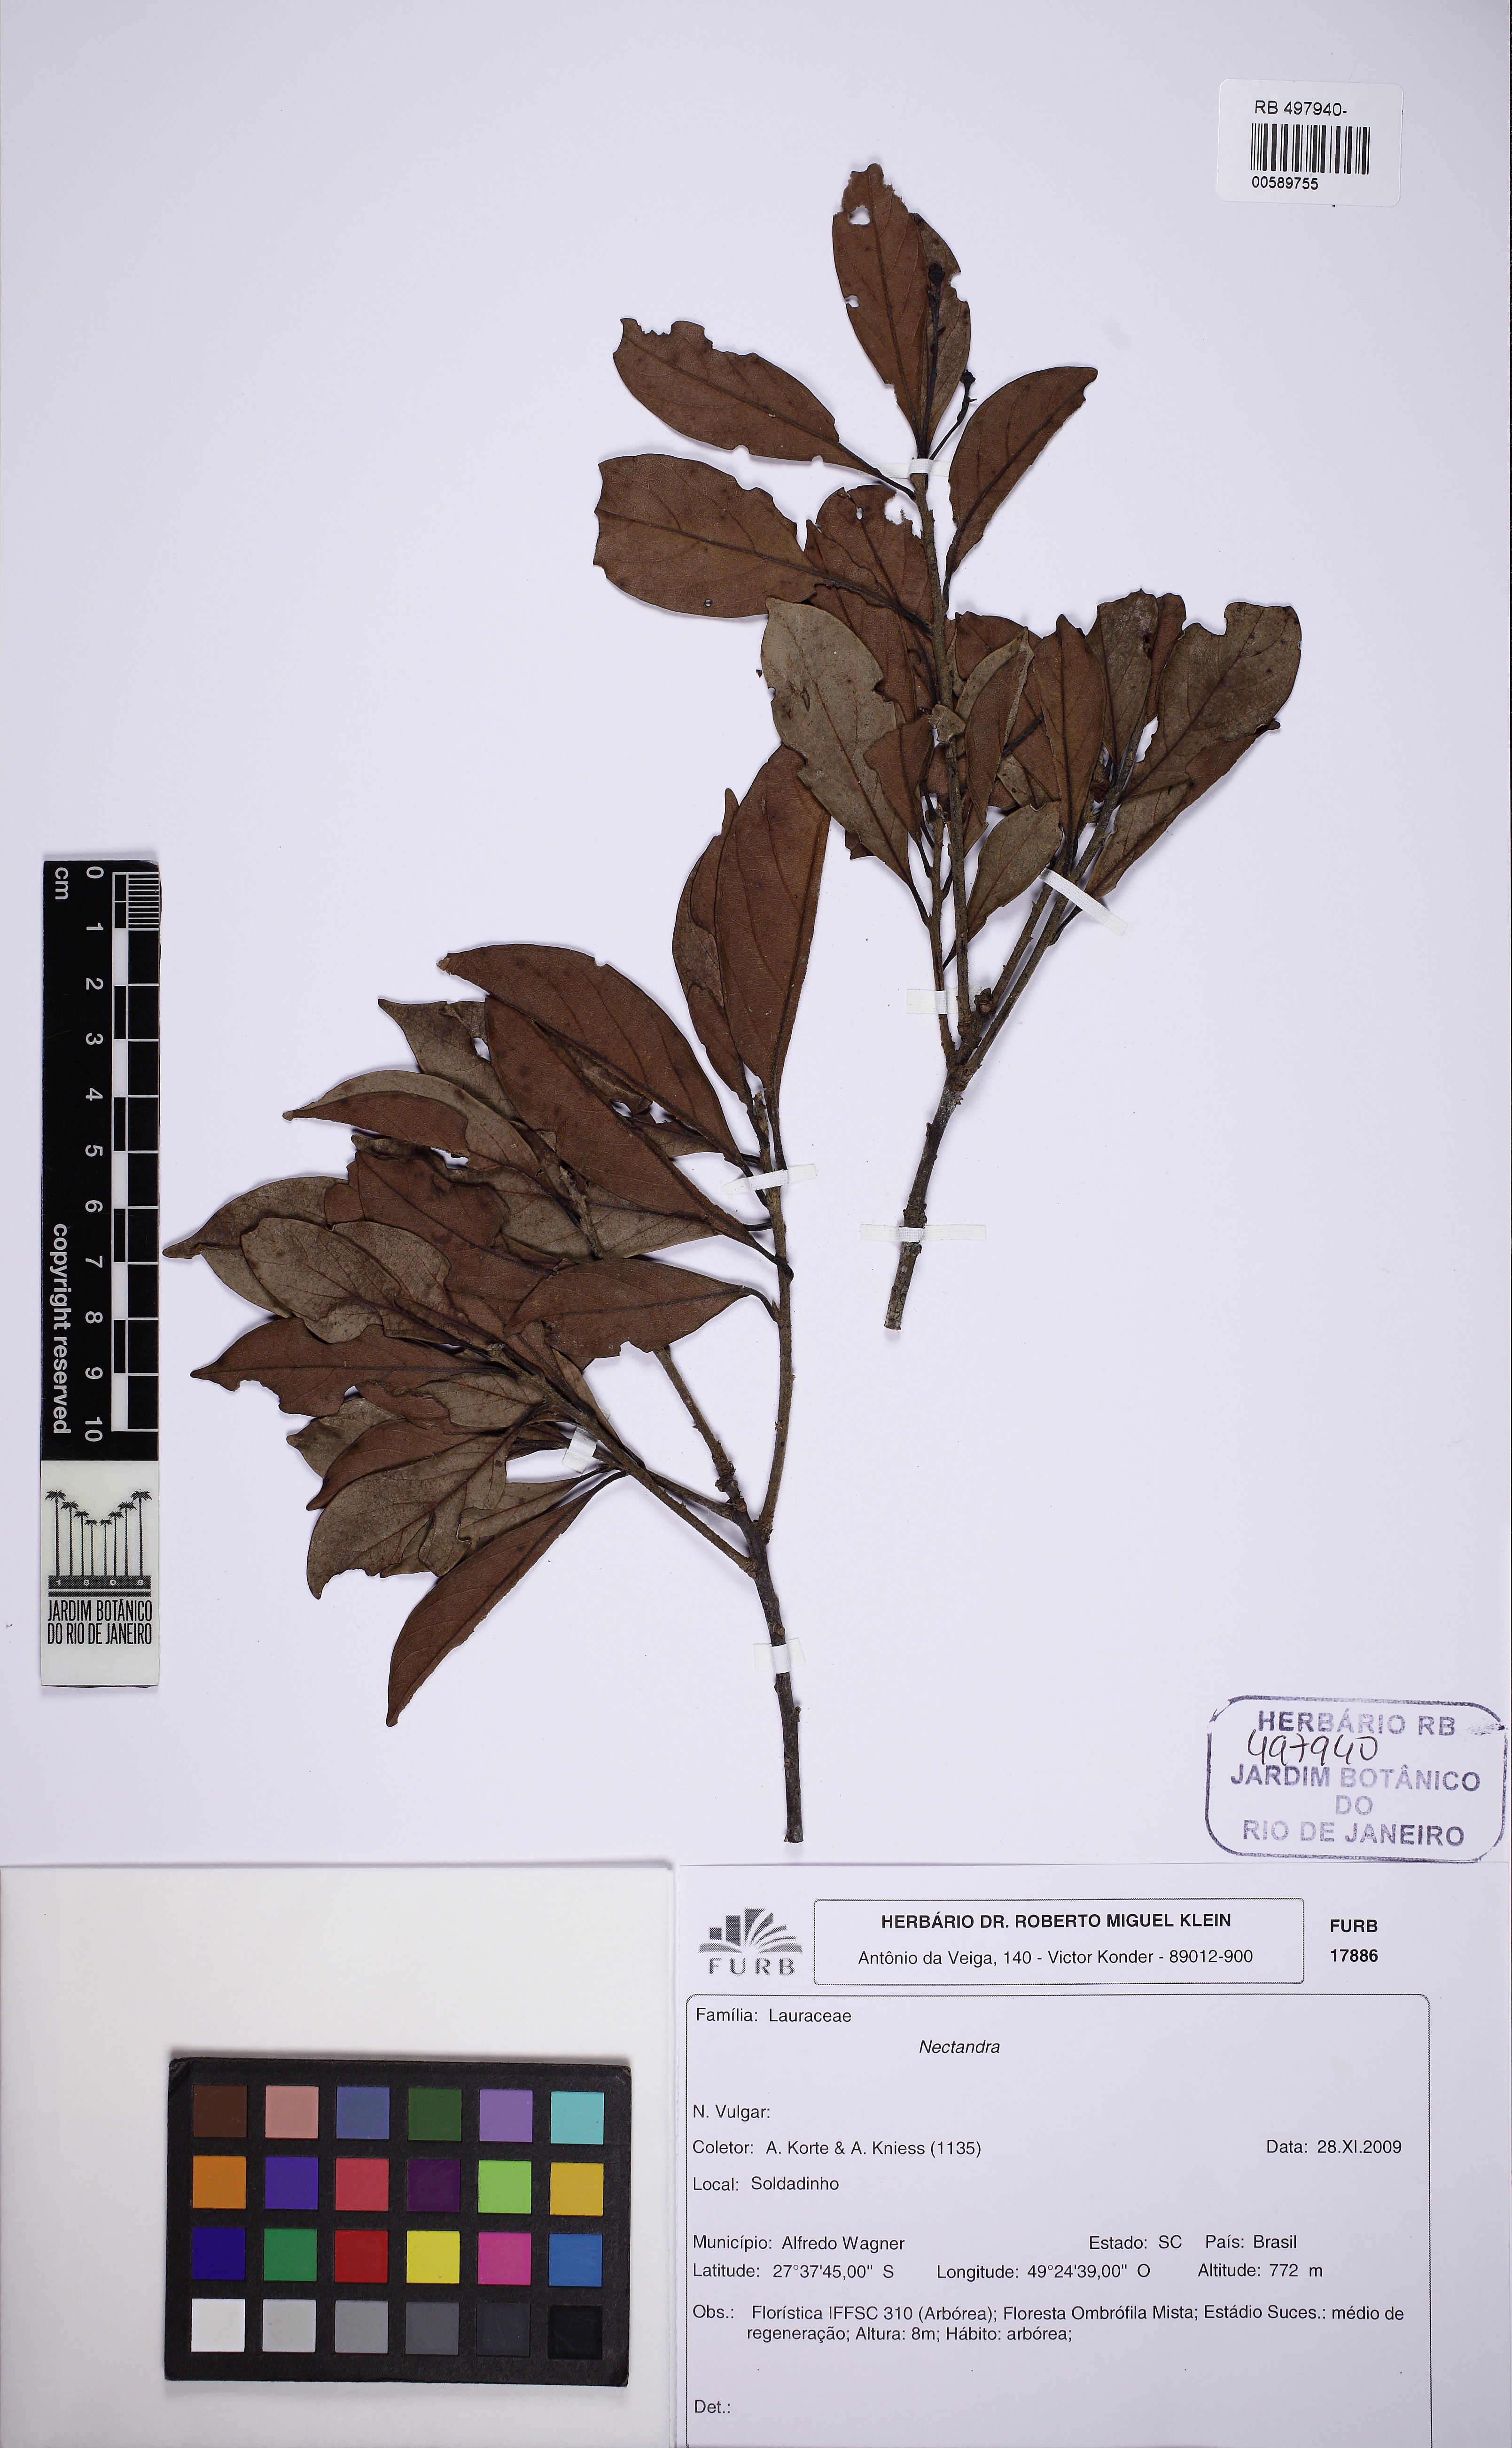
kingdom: Plantae
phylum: Tracheophyta
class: Magnoliopsida
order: Laurales
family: Lauraceae
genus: Nectandra
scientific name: Nectandra
